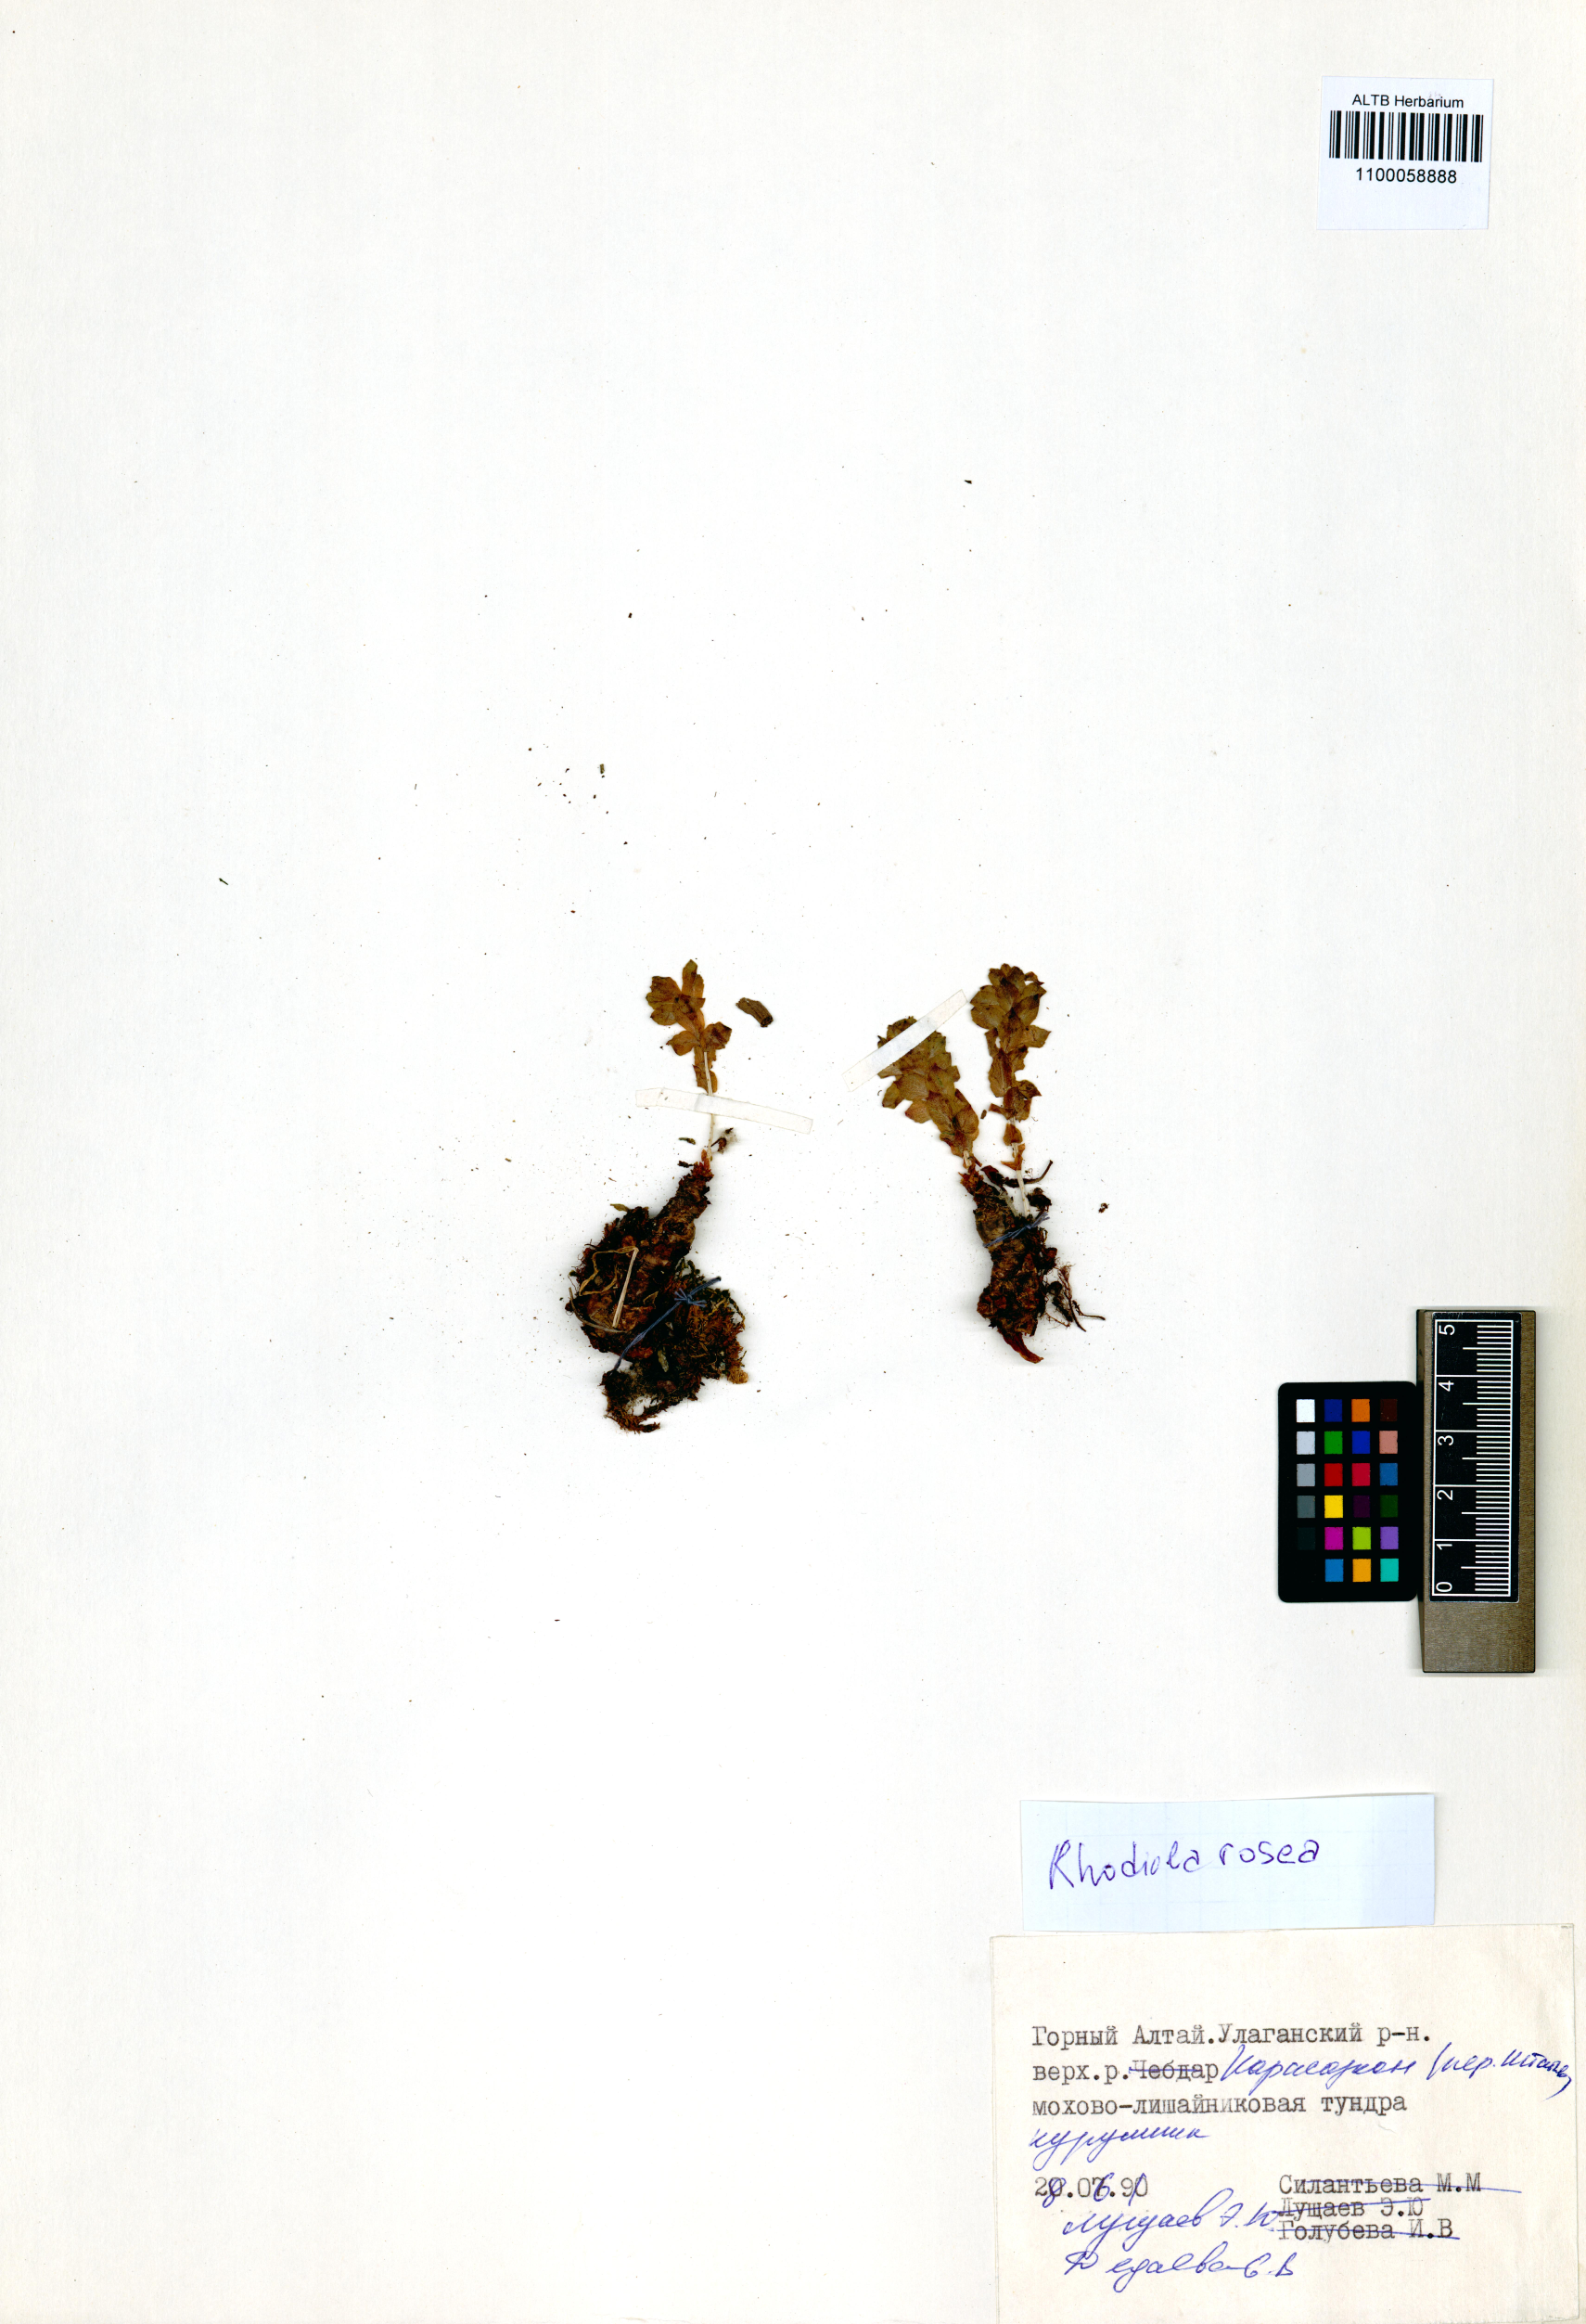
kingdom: Plantae
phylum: Tracheophyta
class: Magnoliopsida
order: Saxifragales
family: Crassulaceae
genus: Rhodiola
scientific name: Rhodiola rosea
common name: Roseroot
